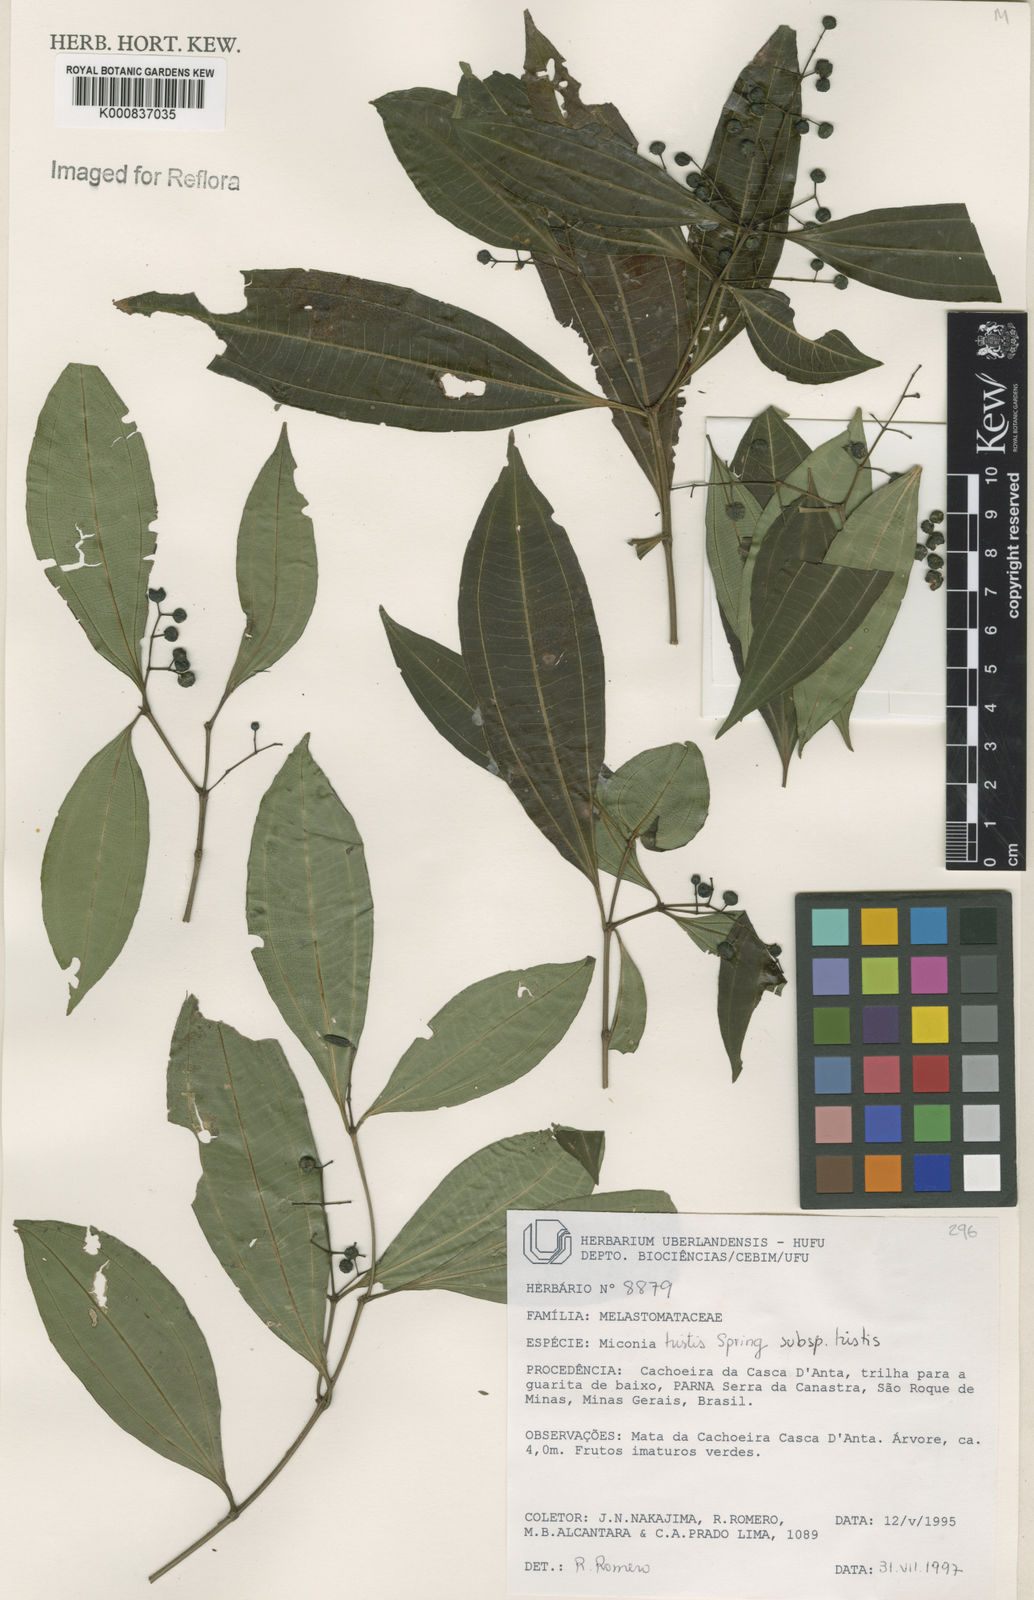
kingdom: Plantae
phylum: Tracheophyta
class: Magnoliopsida
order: Myrtales
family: Melastomataceae
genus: Miconia
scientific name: Miconia
